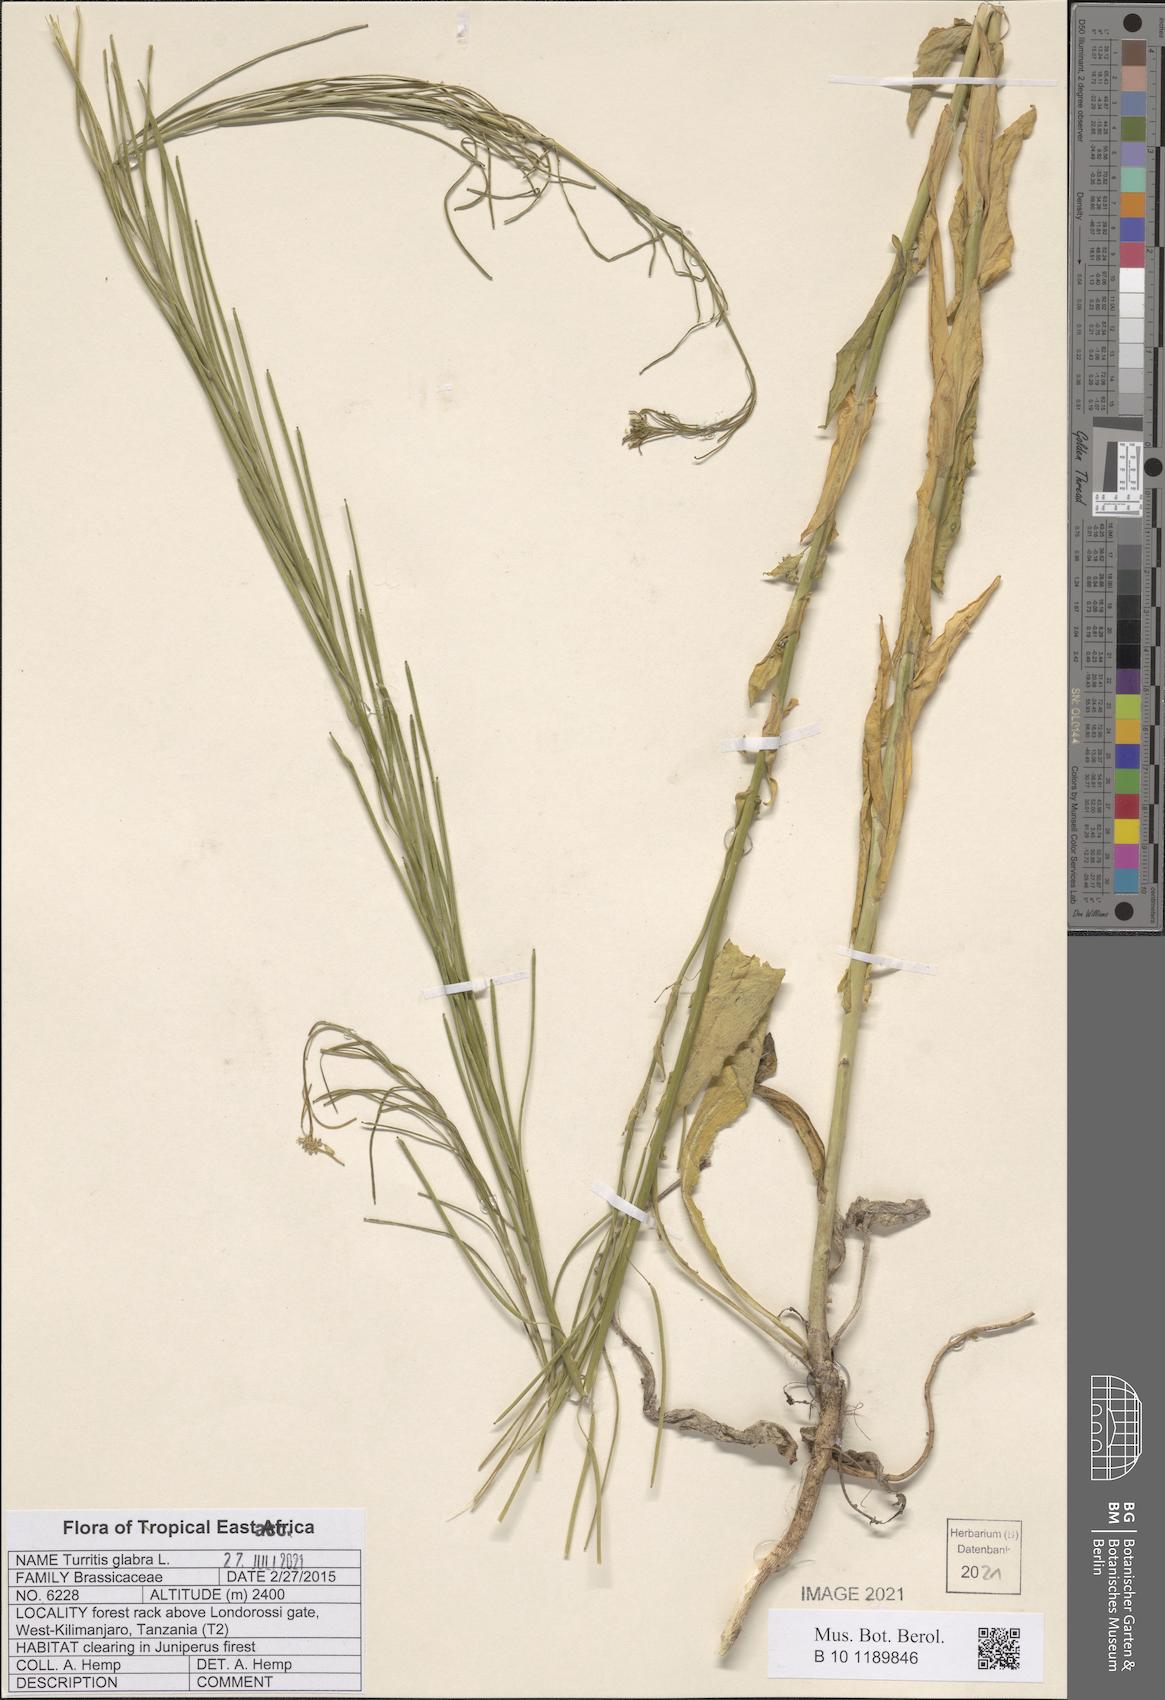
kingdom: Plantae
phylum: Tracheophyta
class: Magnoliopsida
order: Brassicales
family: Brassicaceae
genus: Turritis
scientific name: Turritis glabra
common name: Tower rockcress
